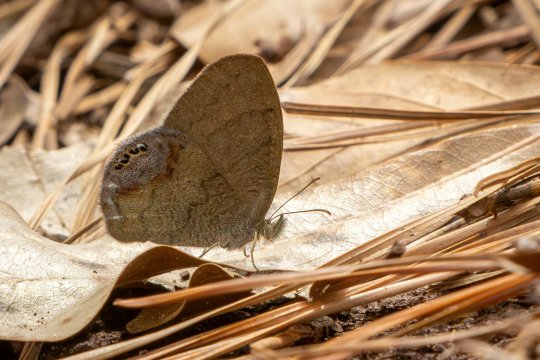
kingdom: Animalia
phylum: Arthropoda
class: Insecta
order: Lepidoptera
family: Nymphalidae
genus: Euptychia
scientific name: Euptychia cornelius
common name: Gemmed Satyr
